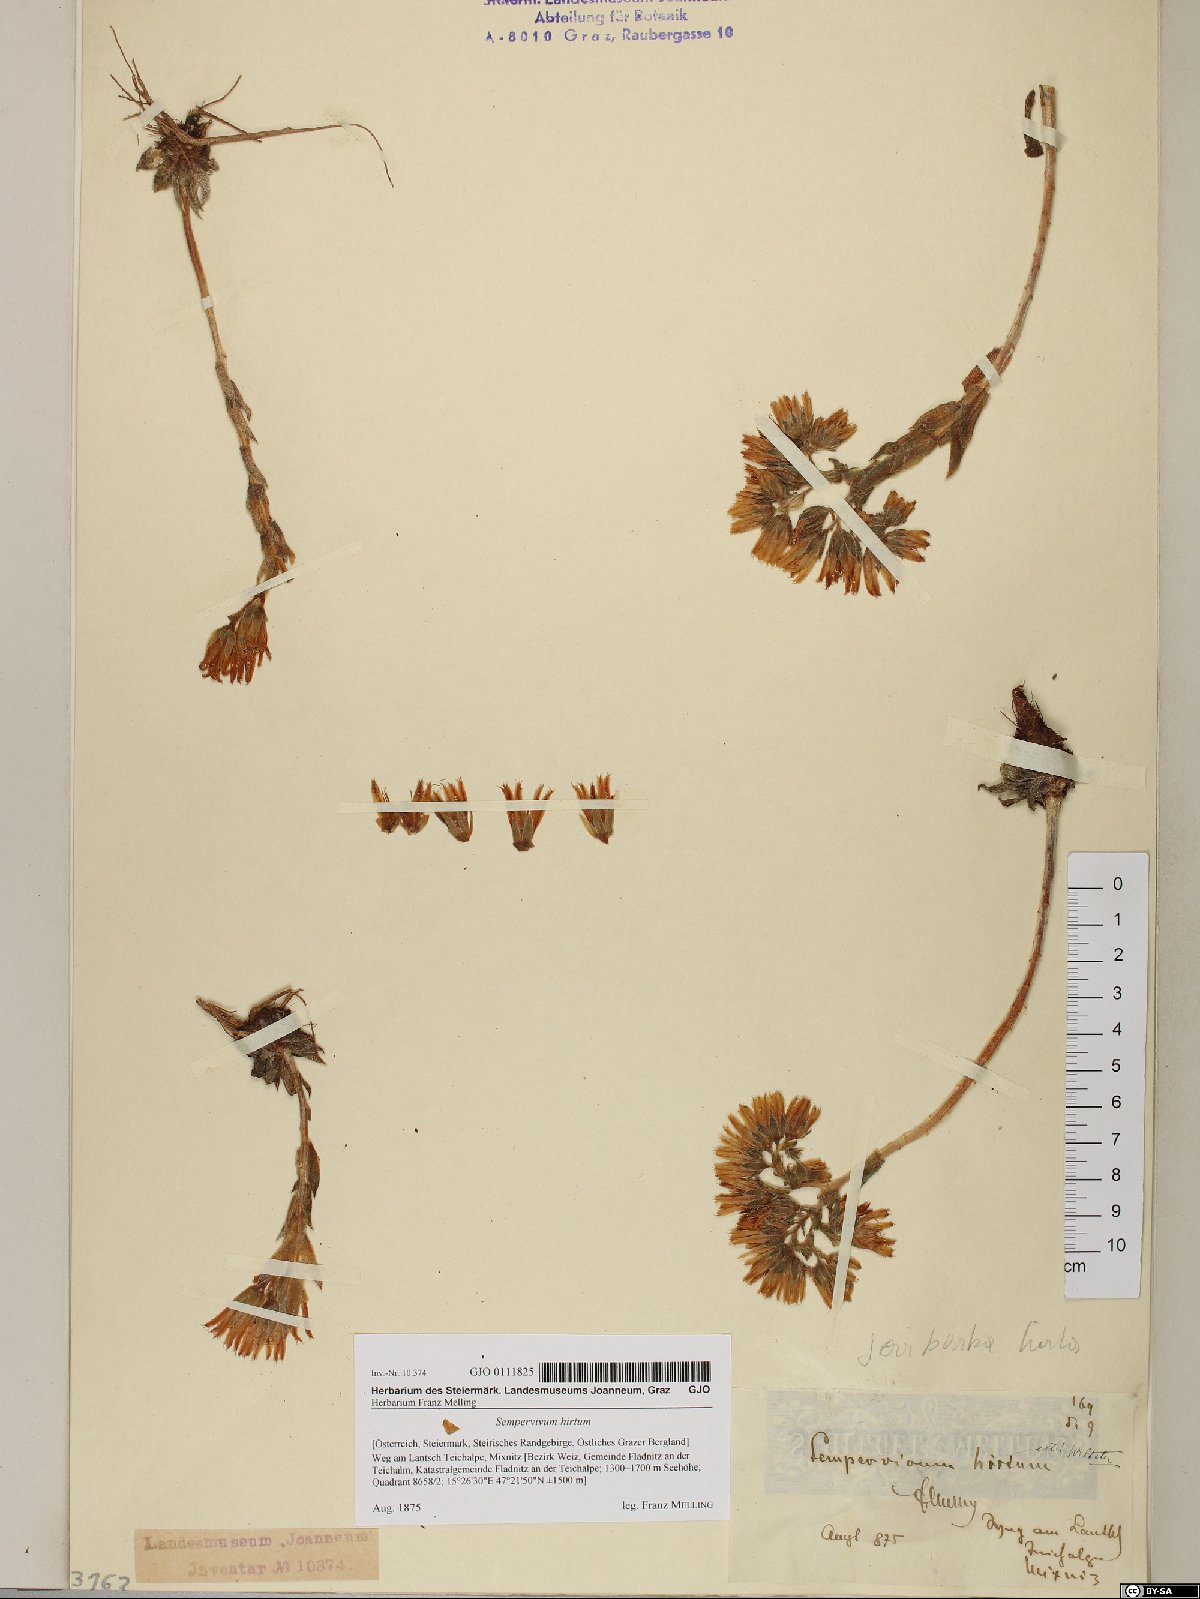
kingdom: Plantae
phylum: Tracheophyta
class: Magnoliopsida
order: Saxifragales
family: Crassulaceae
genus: Sempervivum
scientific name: Sempervivum globiferum
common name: Rolling hen-and-chicks
